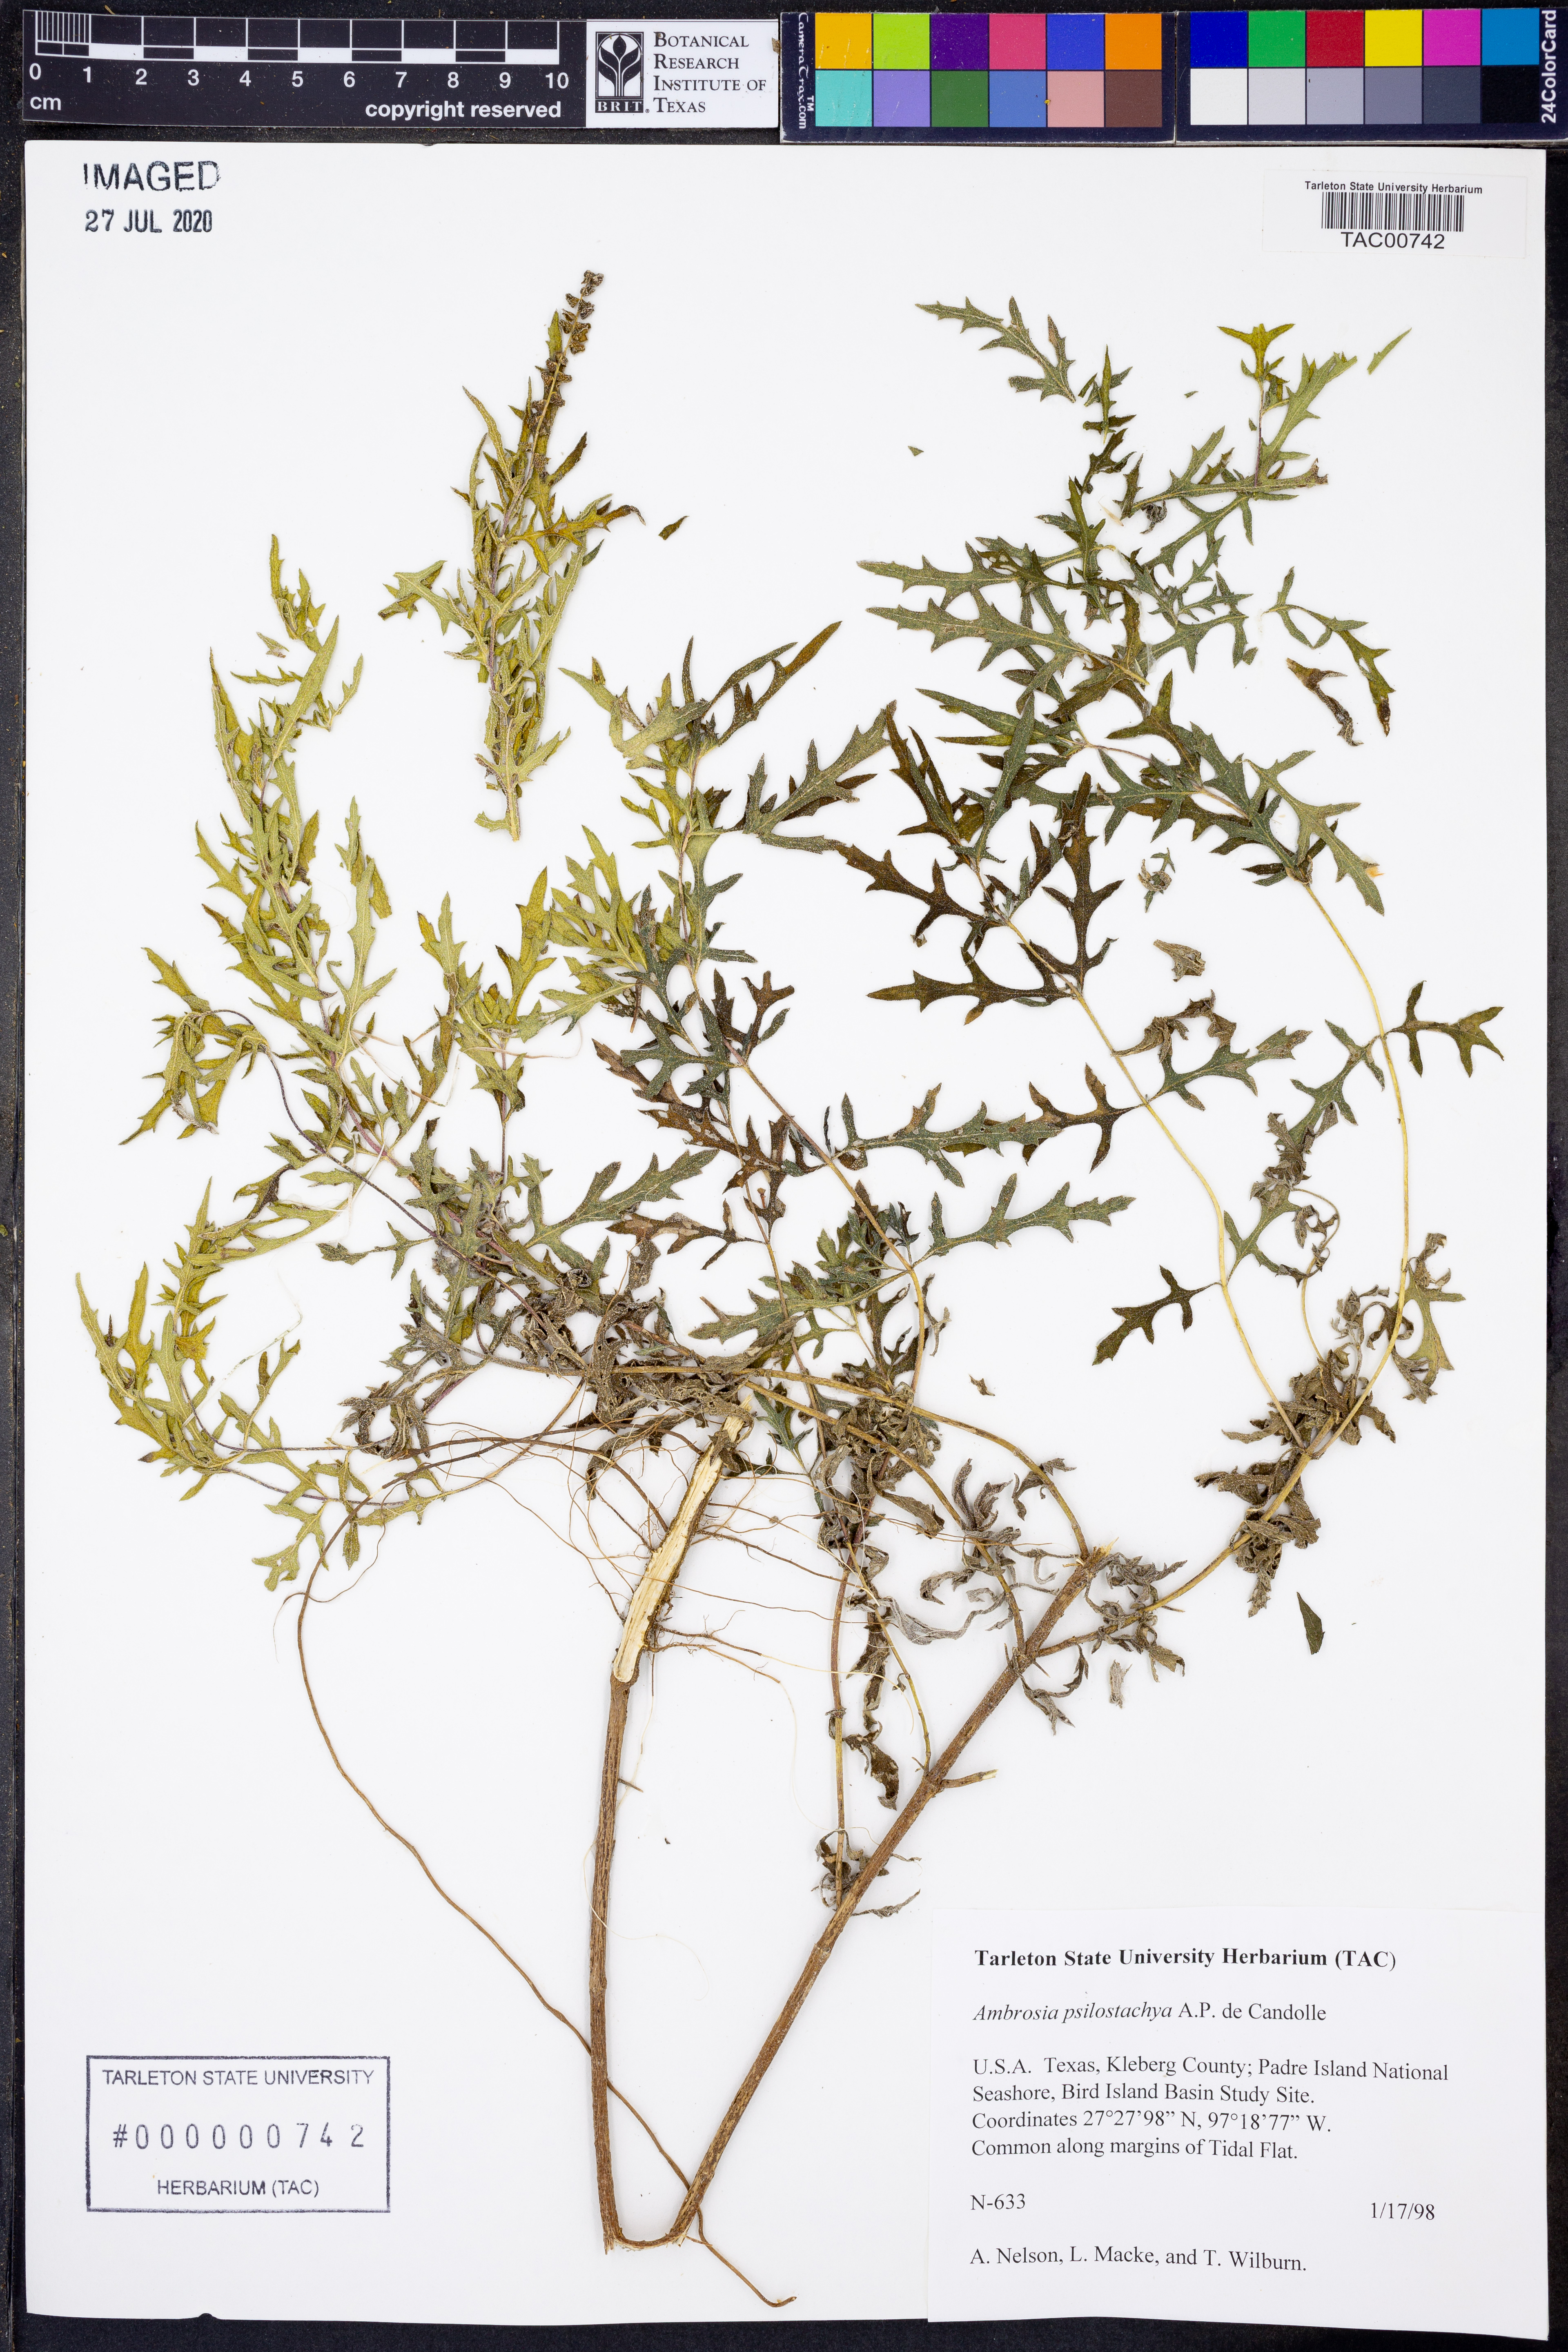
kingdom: Plantae
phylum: Tracheophyta
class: Magnoliopsida
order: Asterales
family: Asteraceae
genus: Ambrosia
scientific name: Ambrosia psilostachya
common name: Perennial ragweed
